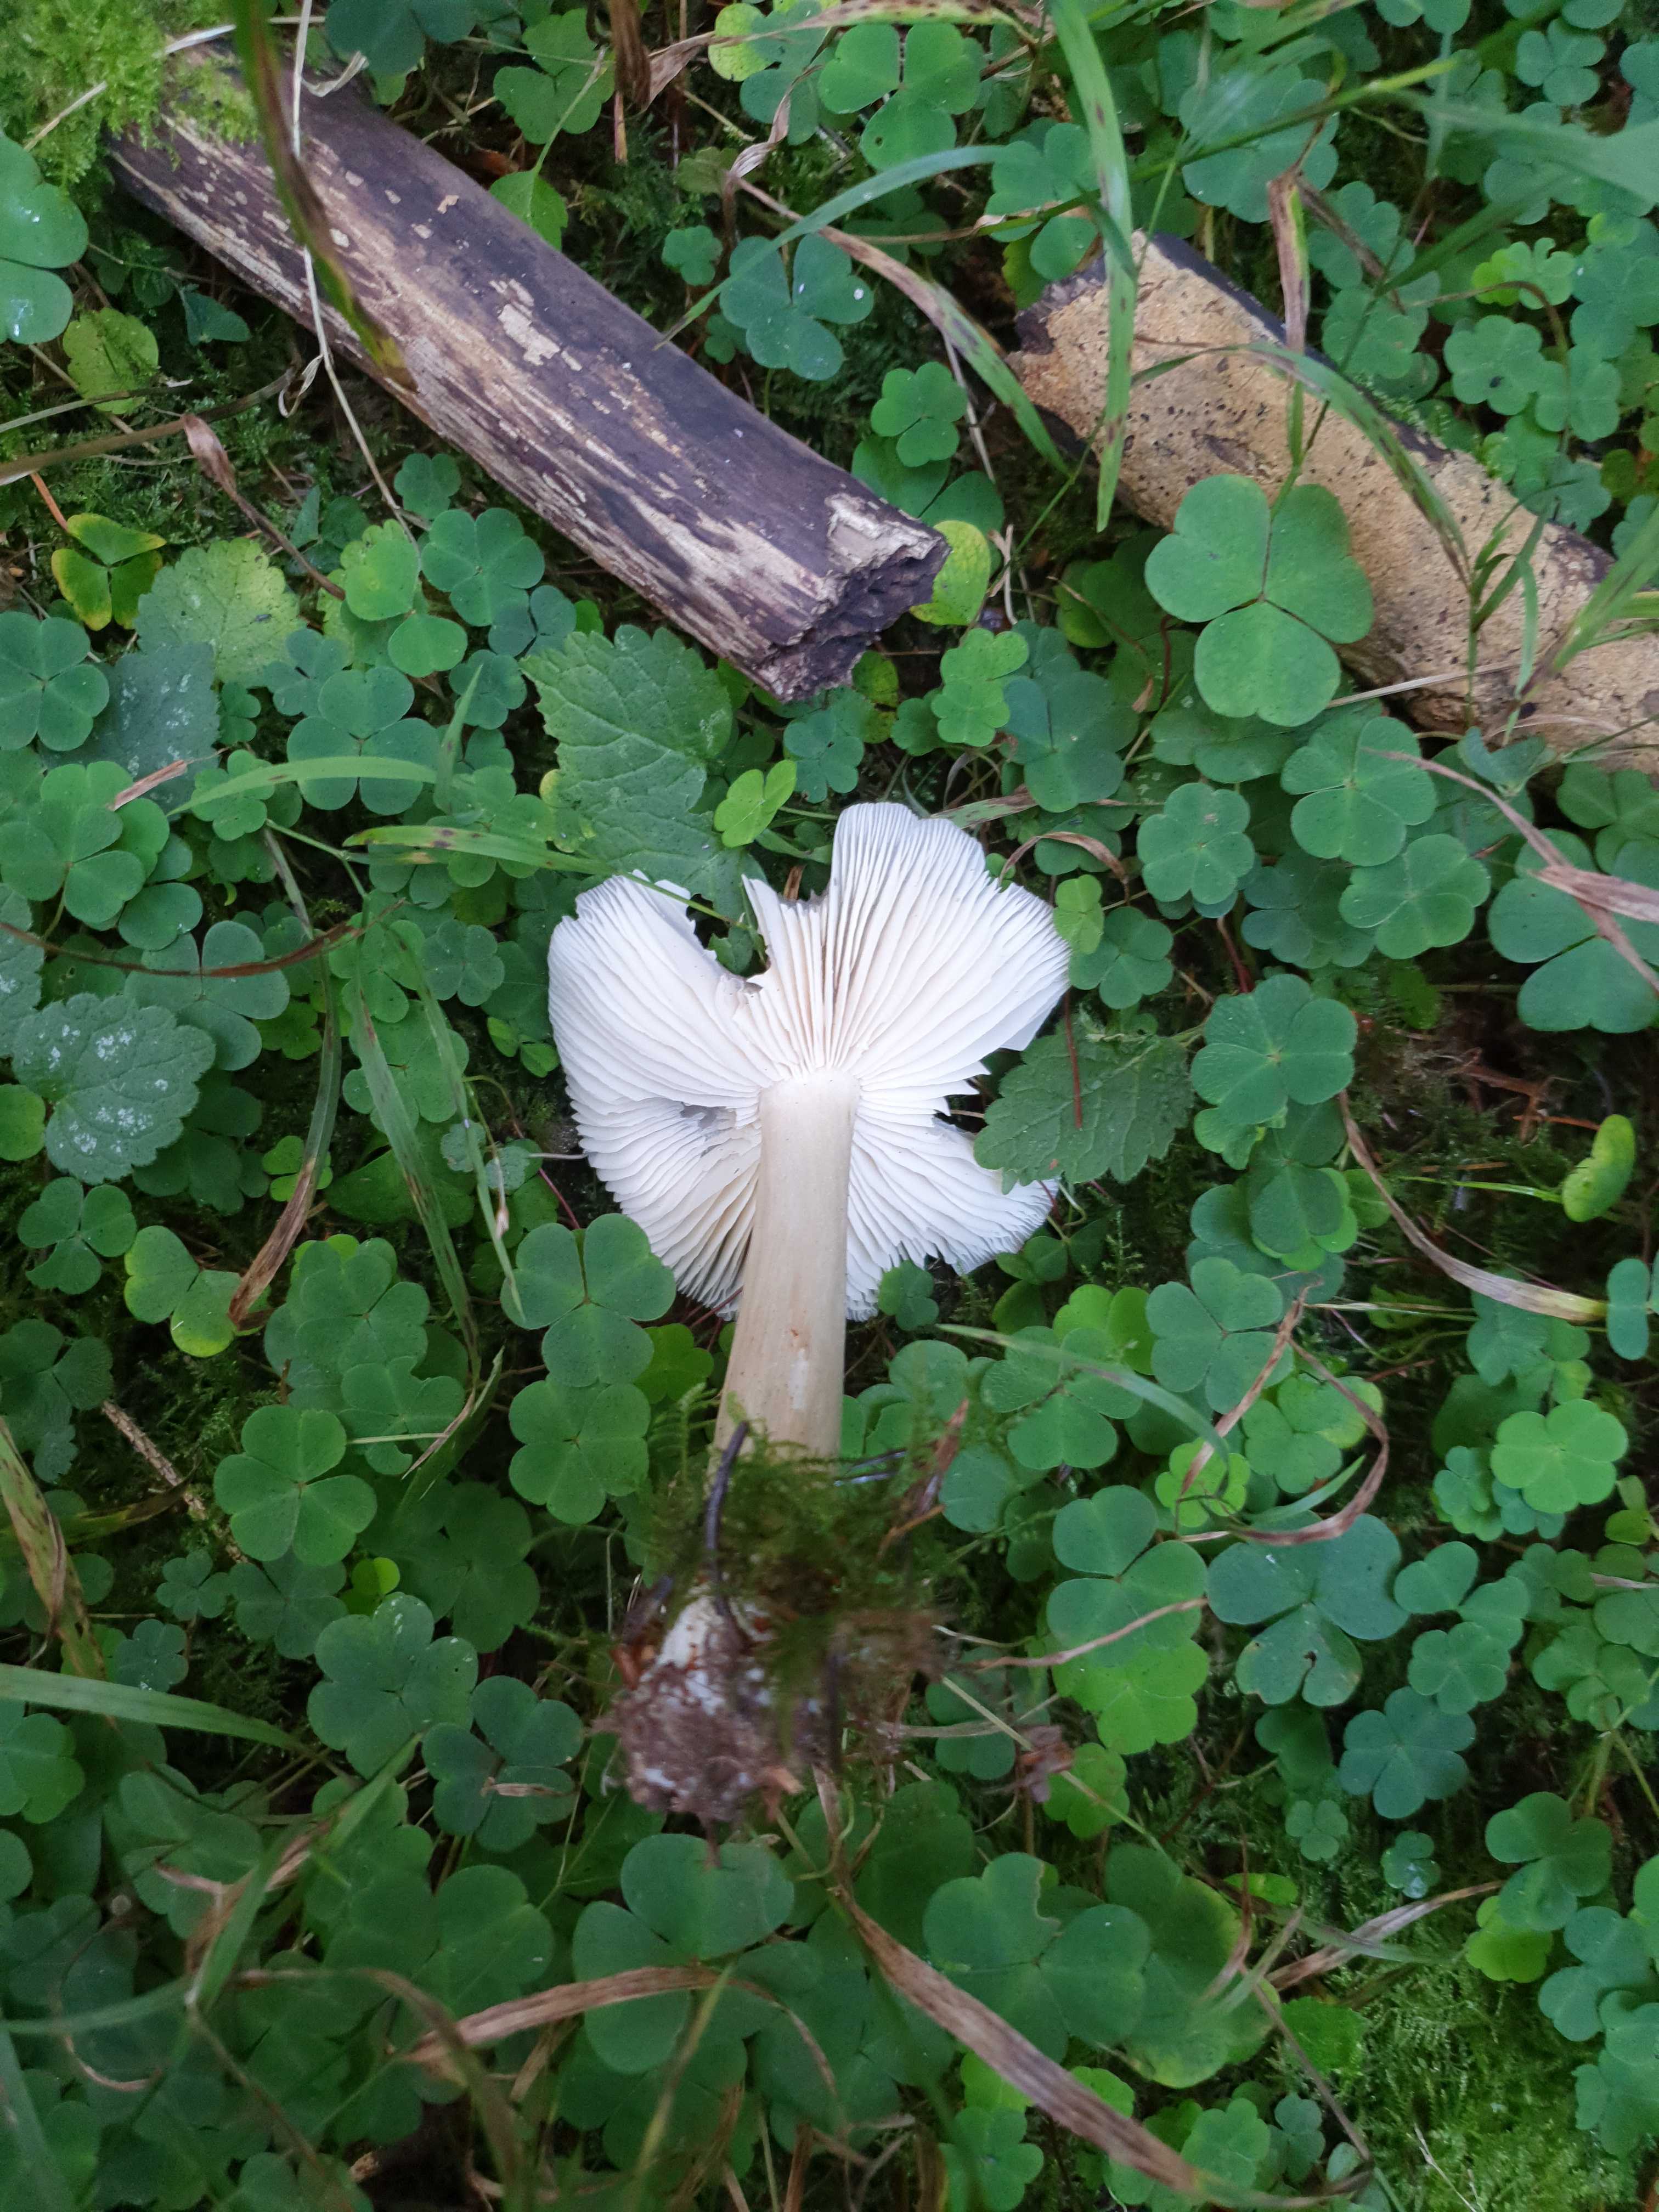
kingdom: Fungi
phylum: Basidiomycota
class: Agaricomycetes
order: Agaricales
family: Tricholomataceae
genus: Megacollybia
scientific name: Megacollybia platyphylla
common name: bredbladet væbnerhat
